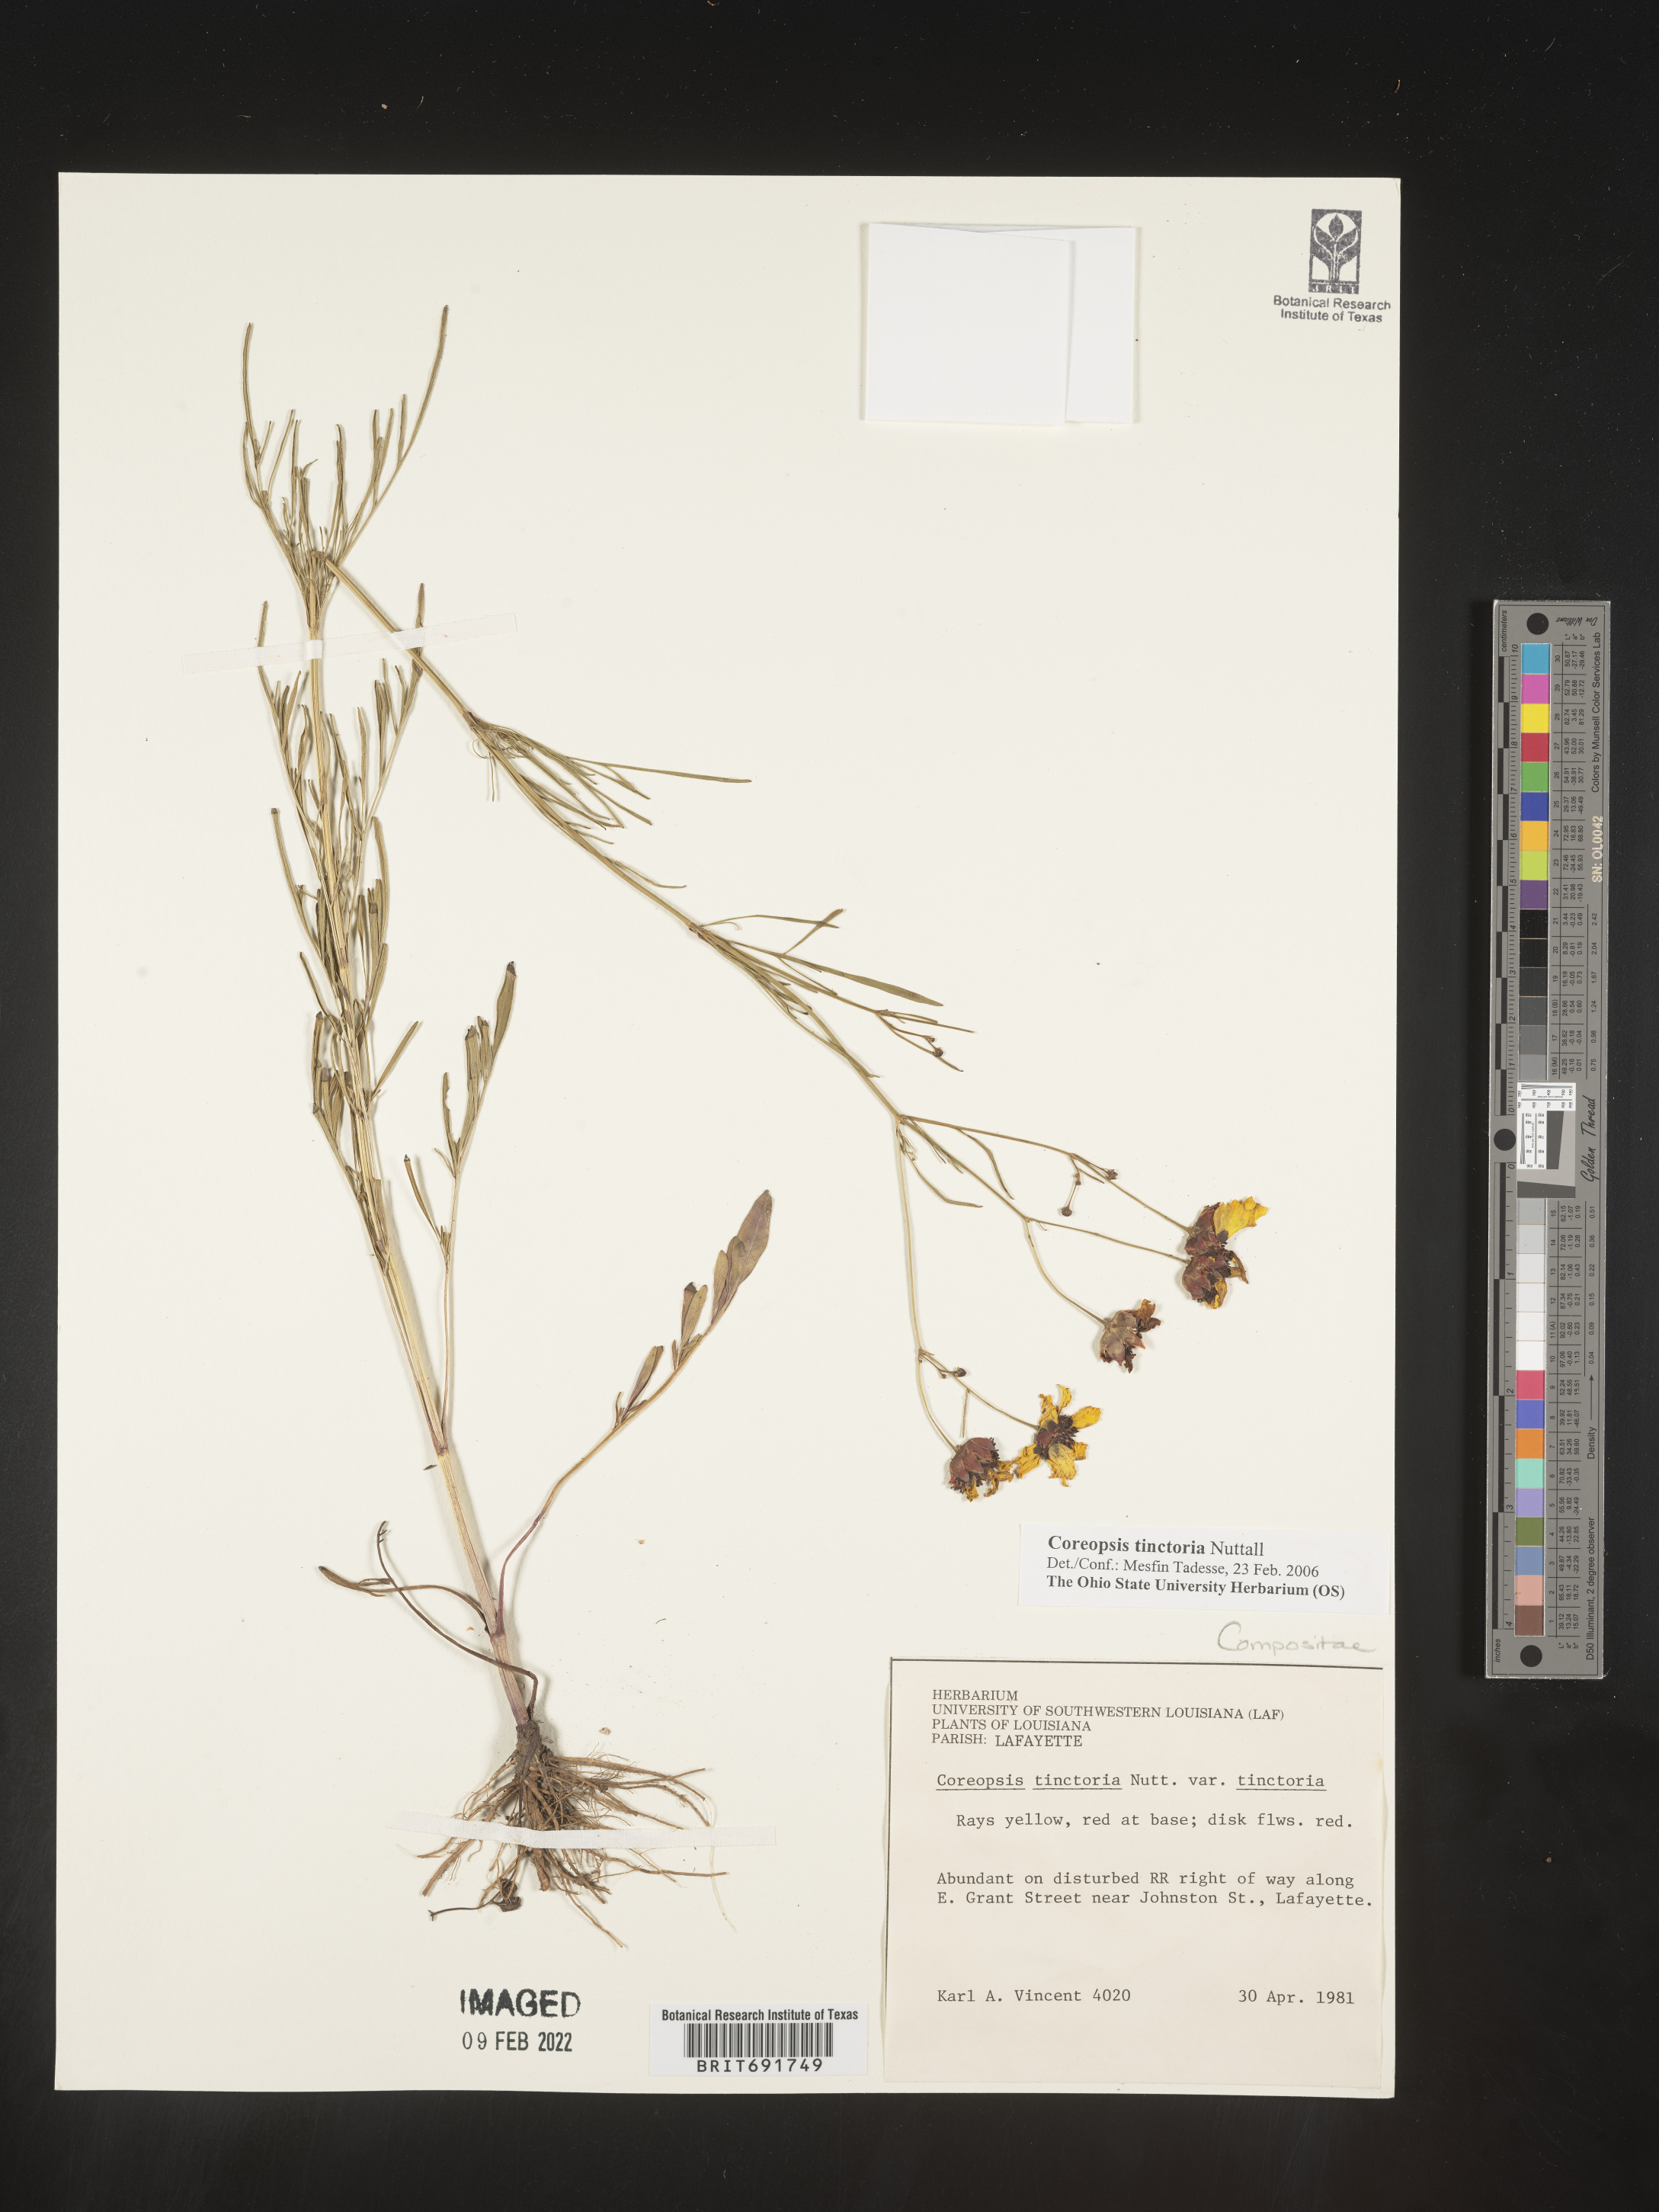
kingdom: Plantae
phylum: Tracheophyta
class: Magnoliopsida
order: Asterales
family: Asteraceae
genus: Coreopsis
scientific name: Coreopsis tinctoria
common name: Garden tickseed
